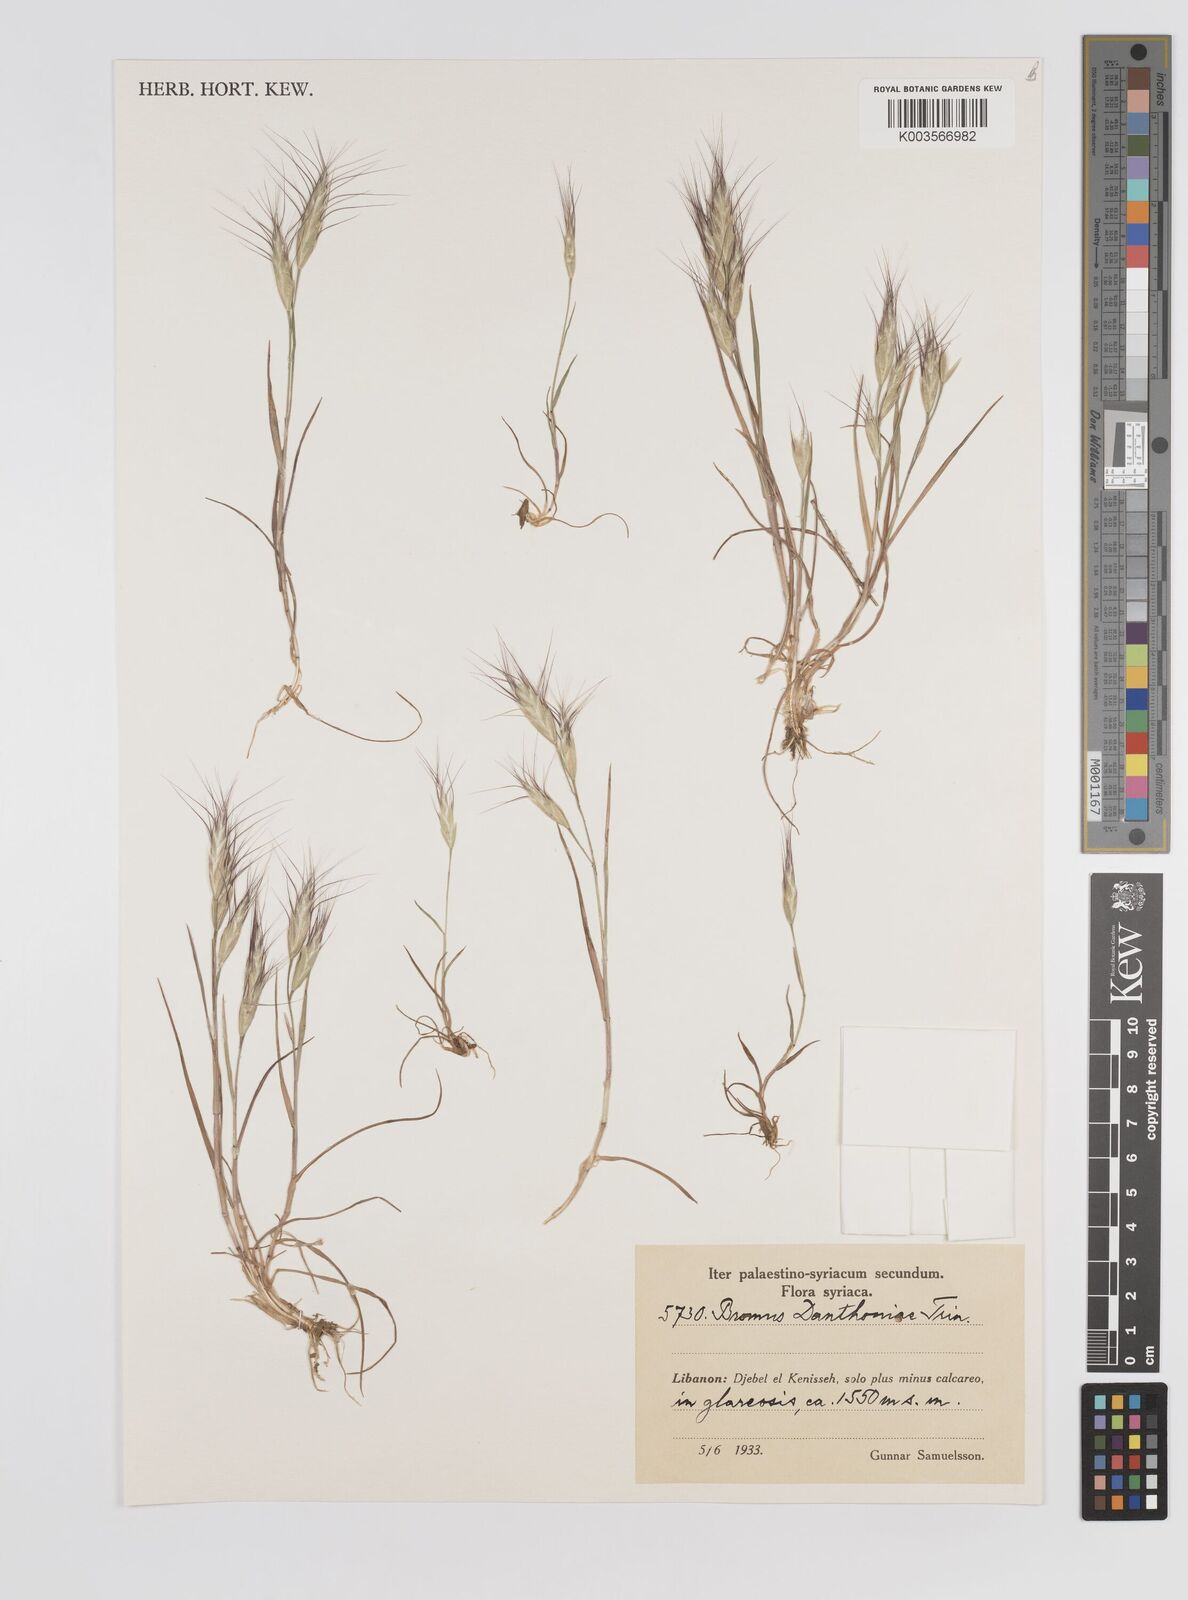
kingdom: Plantae
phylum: Tracheophyta
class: Liliopsida
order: Poales
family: Poaceae
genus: Bromus
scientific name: Bromus danthoniae
